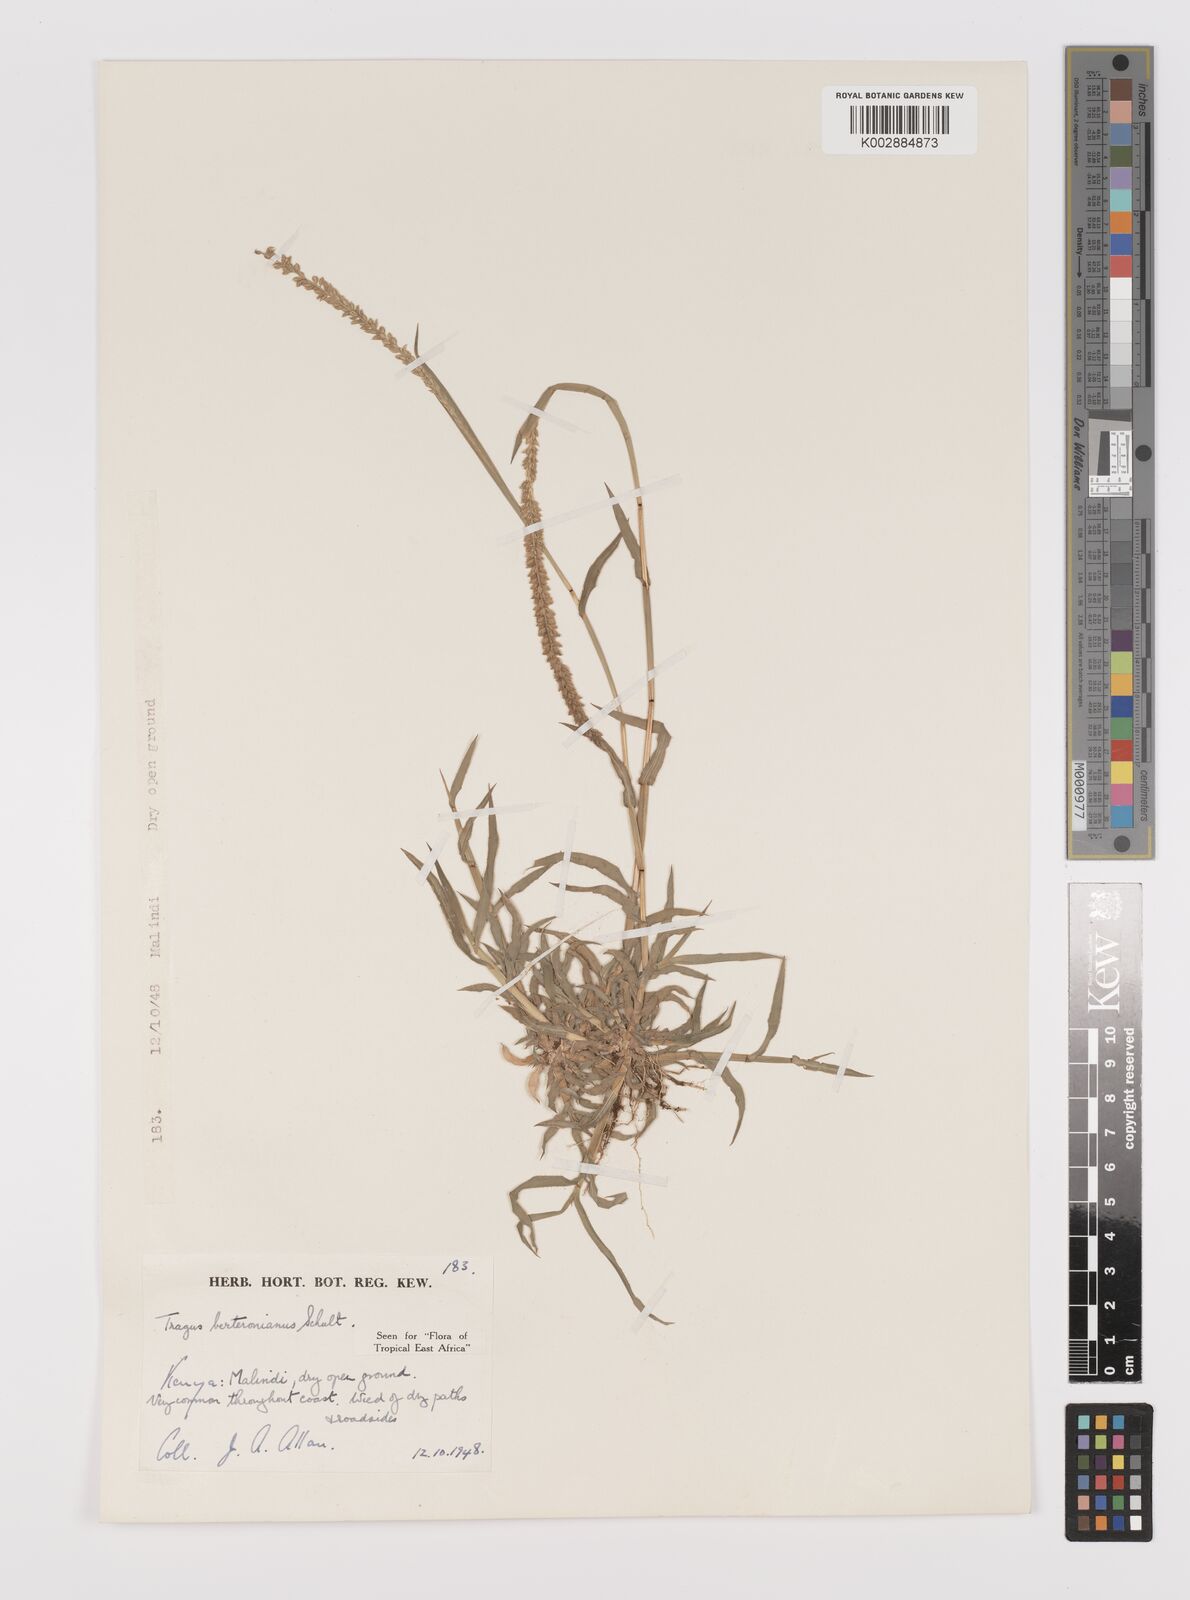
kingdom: Plantae
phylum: Tracheophyta
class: Liliopsida
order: Poales
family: Poaceae
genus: Tragus
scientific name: Tragus berteronianus
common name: African bur-grass
